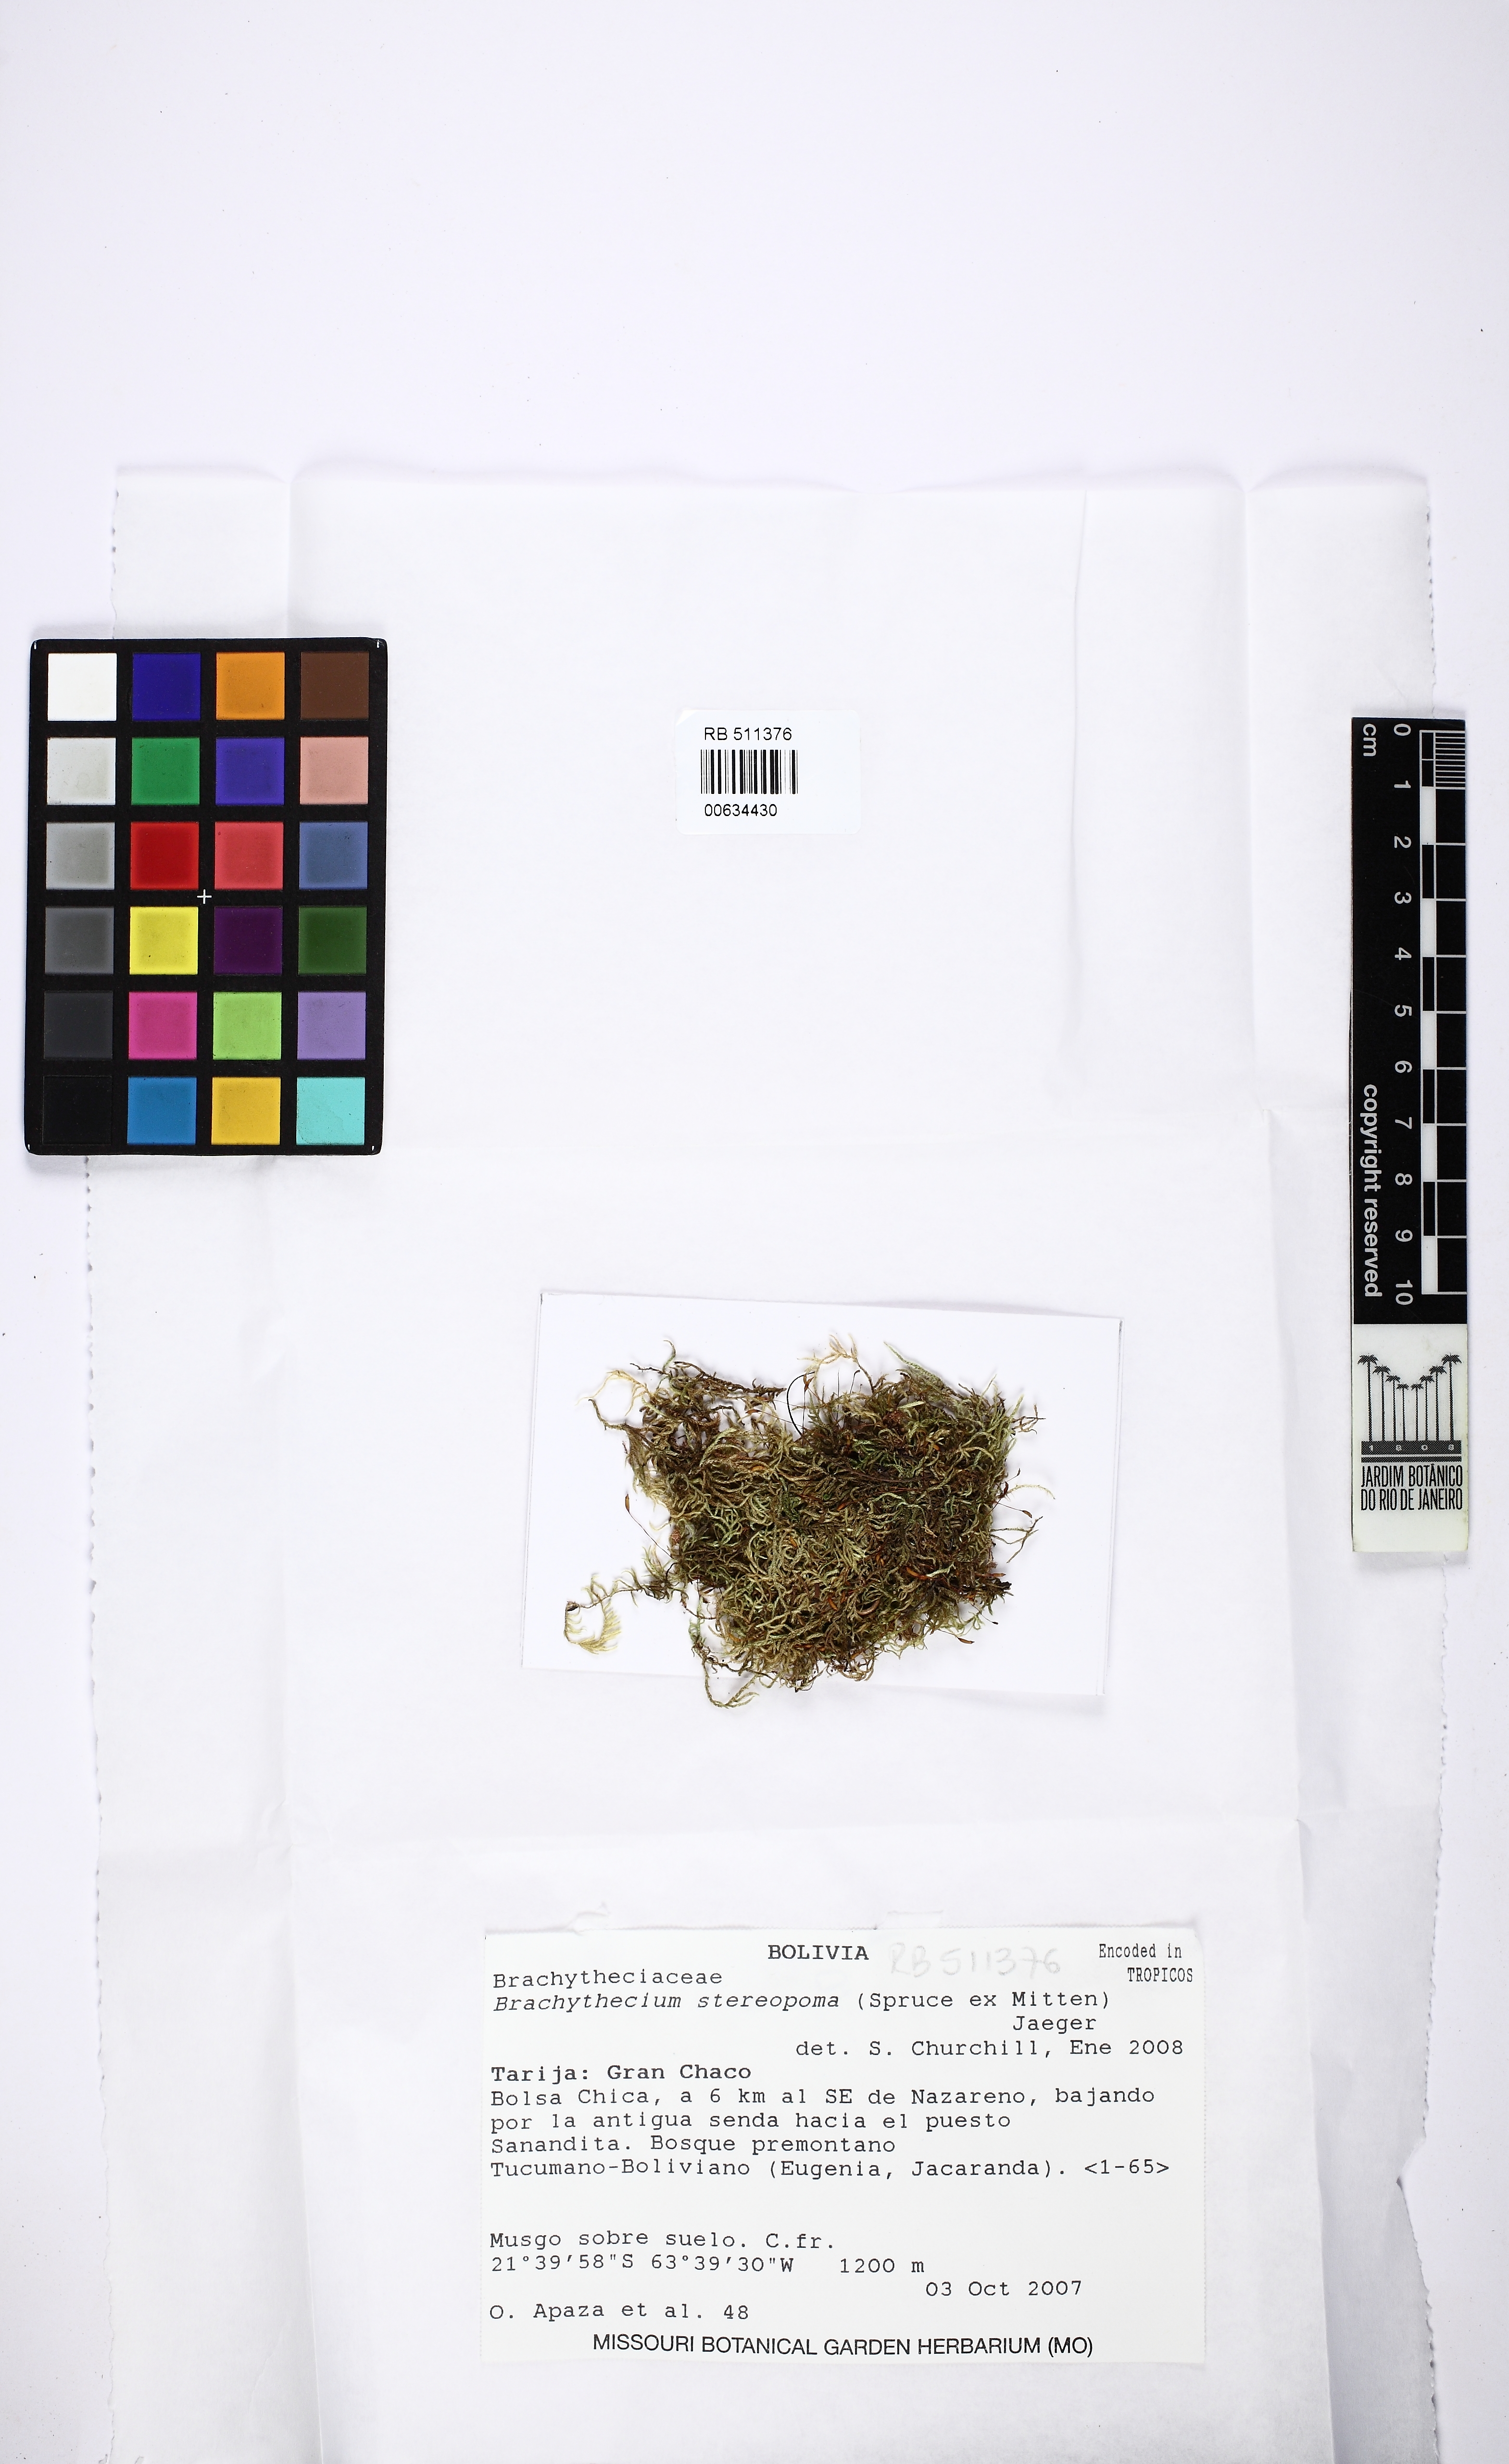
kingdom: Plantae
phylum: Bryophyta
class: Bryopsida
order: Hypnales
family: Brachytheciaceae
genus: Brachythecium
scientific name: Brachythecium ruderale
